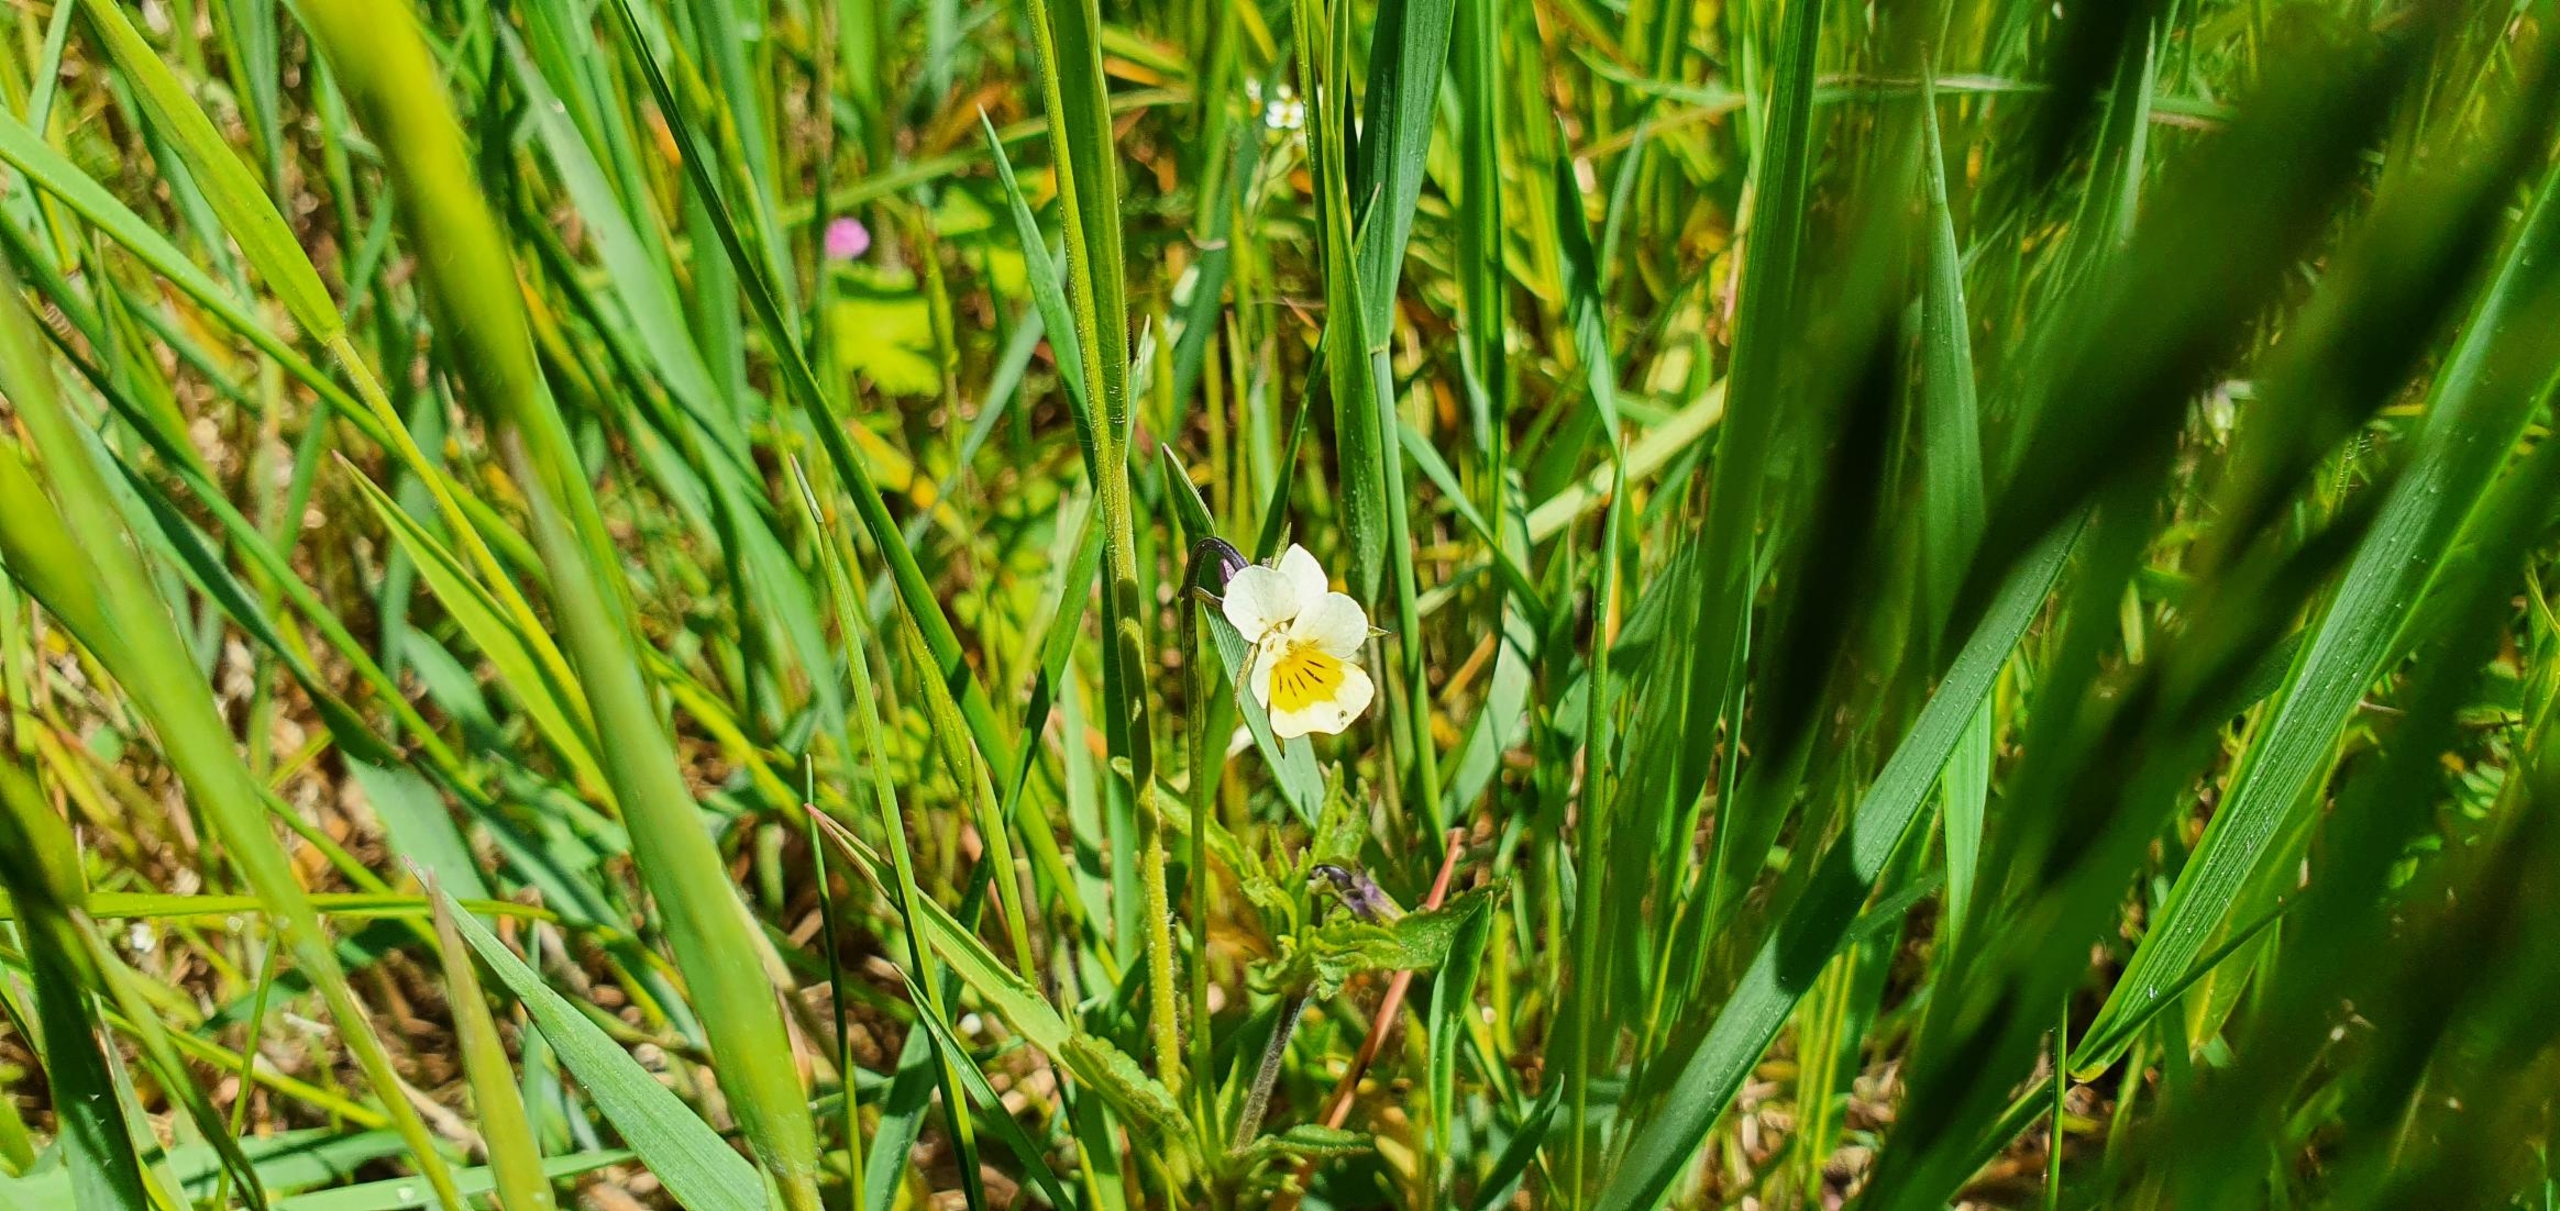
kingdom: Plantae
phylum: Tracheophyta
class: Magnoliopsida
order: Malpighiales
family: Violaceae
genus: Viola
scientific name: Viola arvensis
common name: Ager-stedmoderblomst
